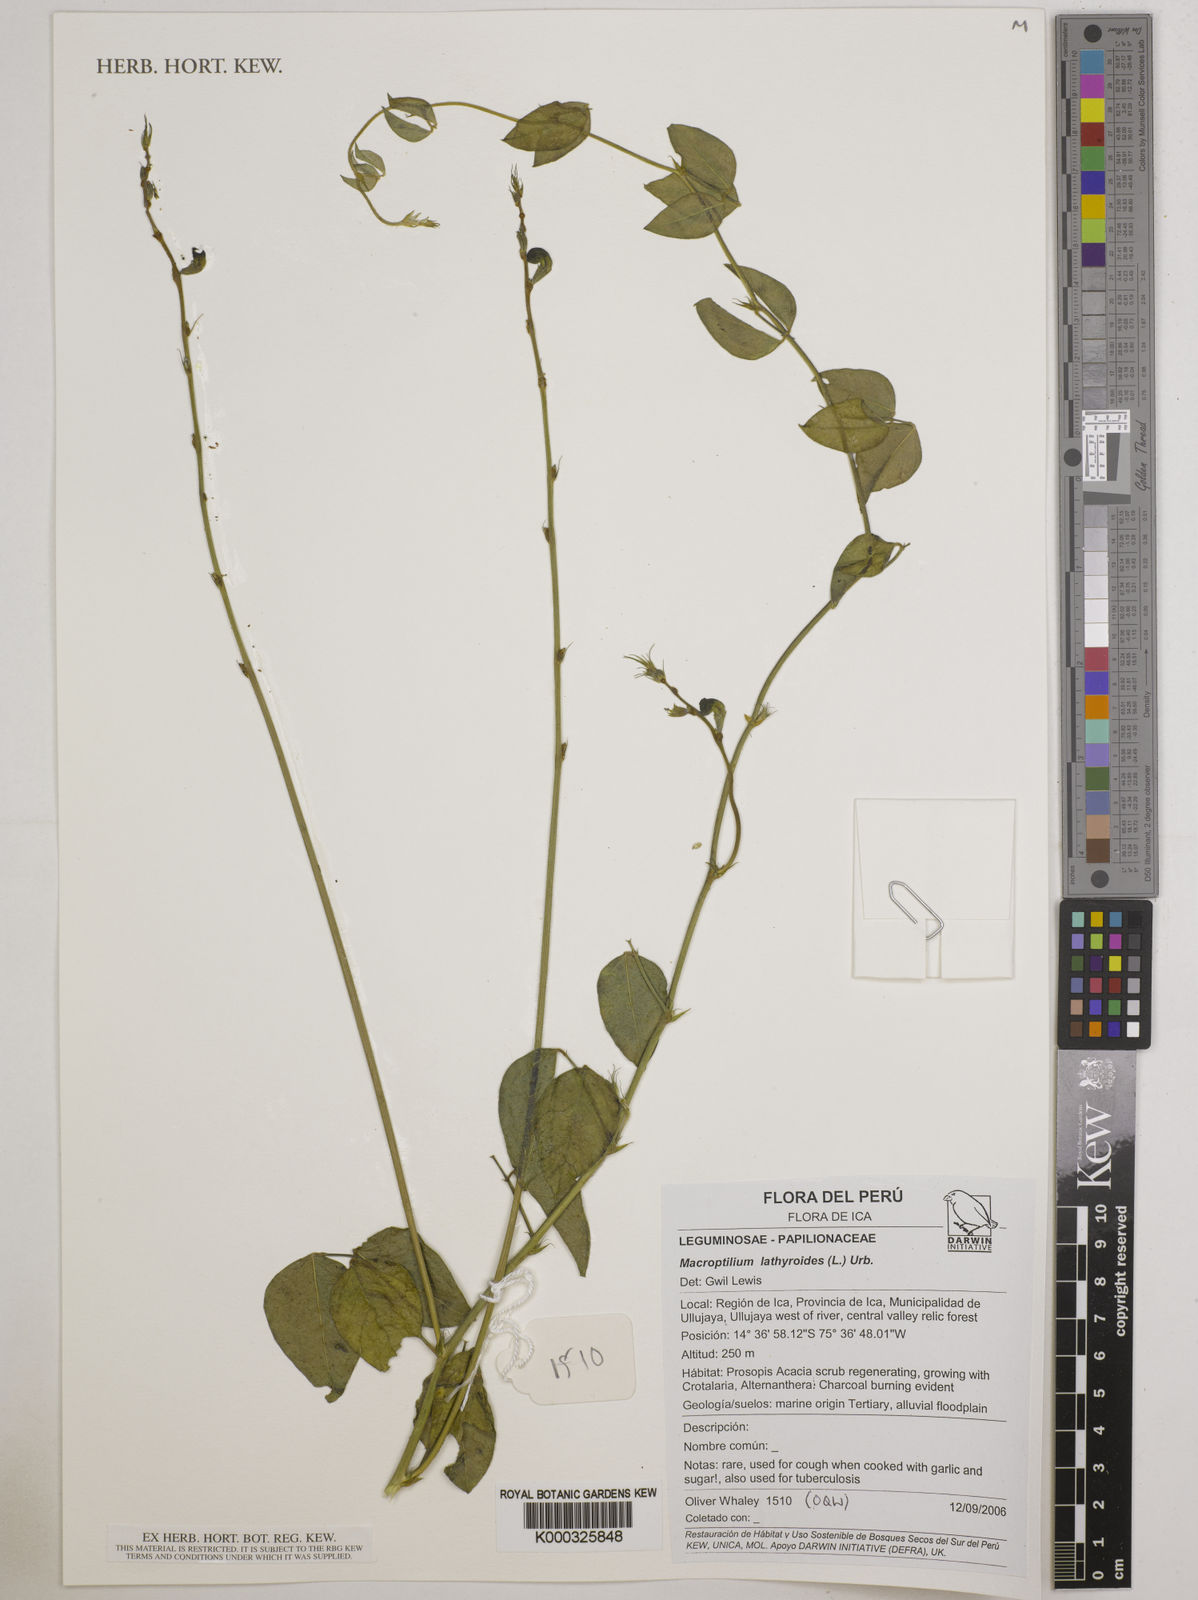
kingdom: Plantae
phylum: Tracheophyta
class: Magnoliopsida
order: Fabales
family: Fabaceae
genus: Macroptilium
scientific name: Macroptilium lathyroides
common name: Wild bushbean
